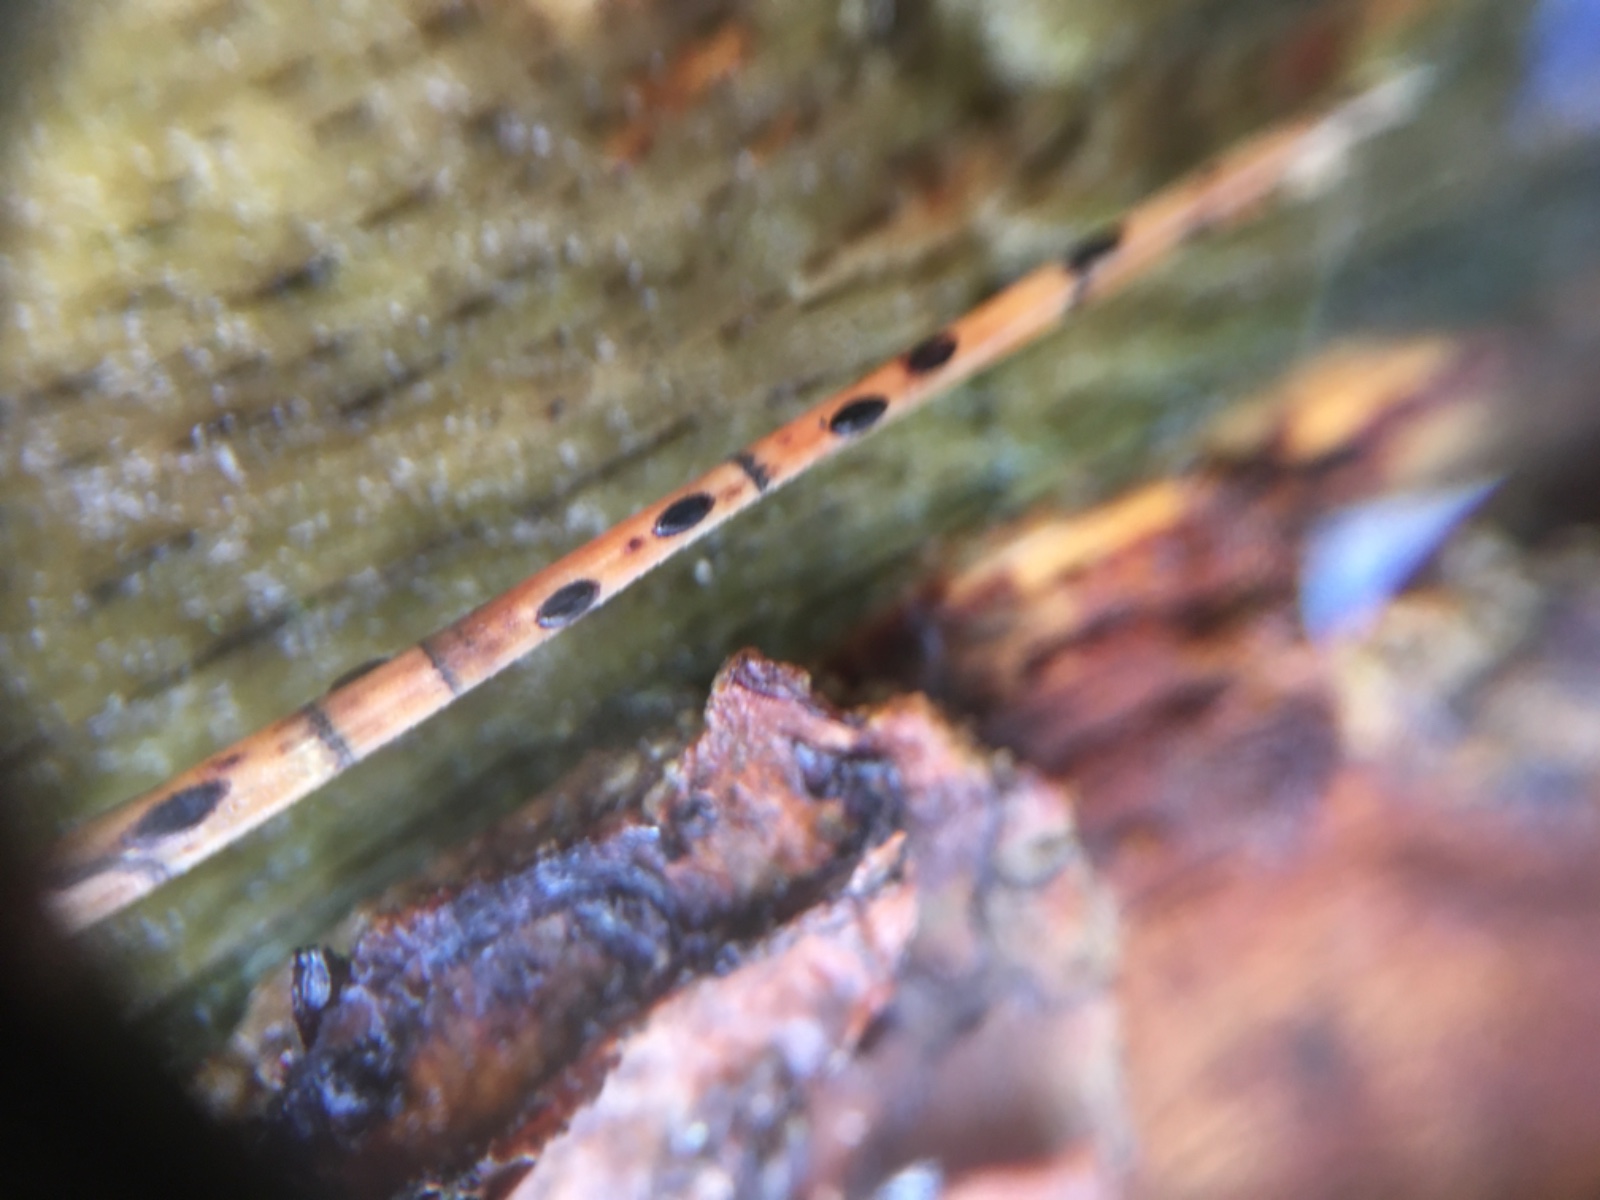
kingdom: Fungi
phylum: Ascomycota
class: Leotiomycetes
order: Rhytismatales
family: Rhytismataceae
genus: Lophodermium
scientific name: Lophodermium pinastri
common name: fyrre-fureplet
